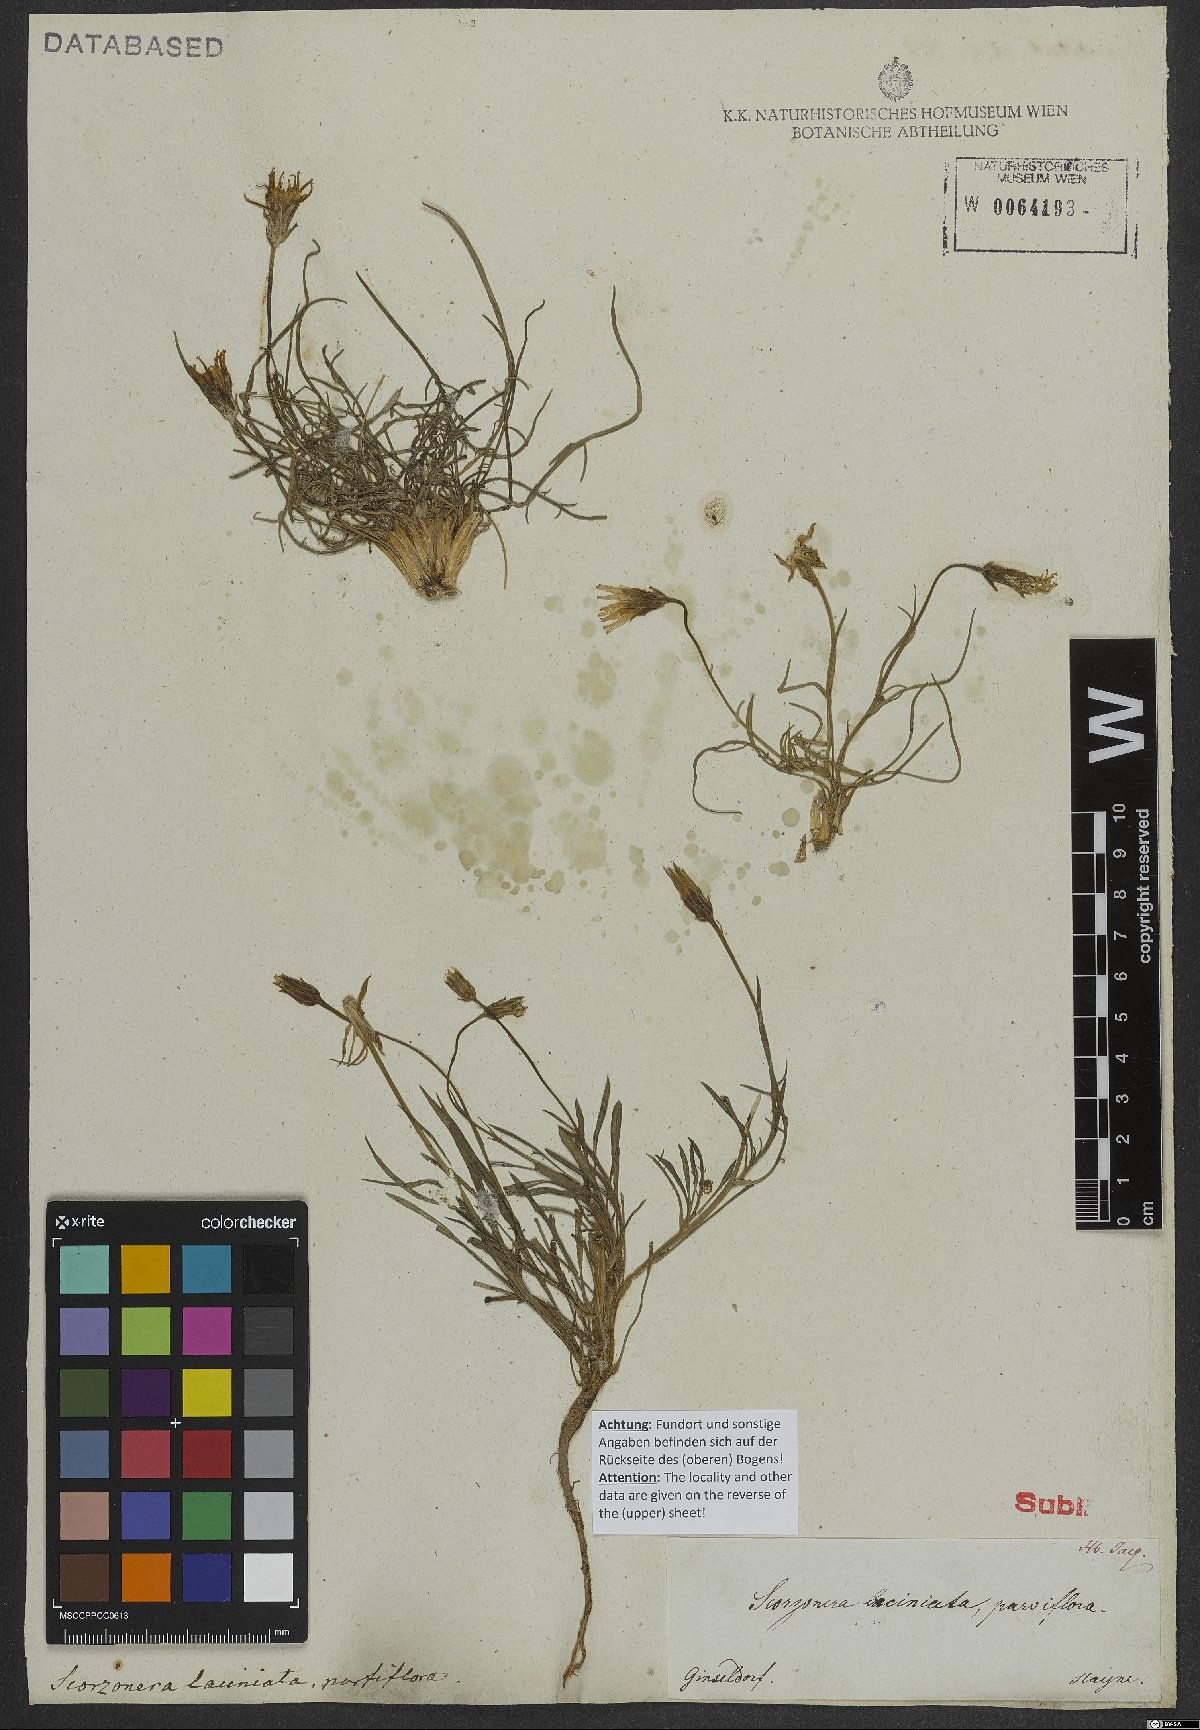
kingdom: Plantae
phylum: Tracheophyta
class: Magnoliopsida
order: Asterales
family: Asteraceae
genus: Scorzonera
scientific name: Scorzonera cana
